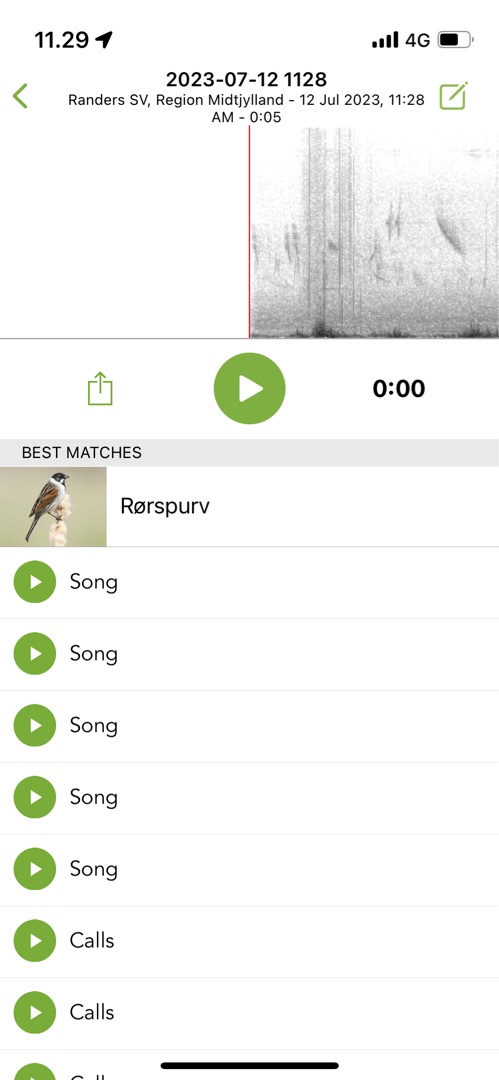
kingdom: Animalia
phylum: Chordata
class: Aves
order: Passeriformes
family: Emberizidae
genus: Emberiza
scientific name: Emberiza schoeniclus
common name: Rørspurv
